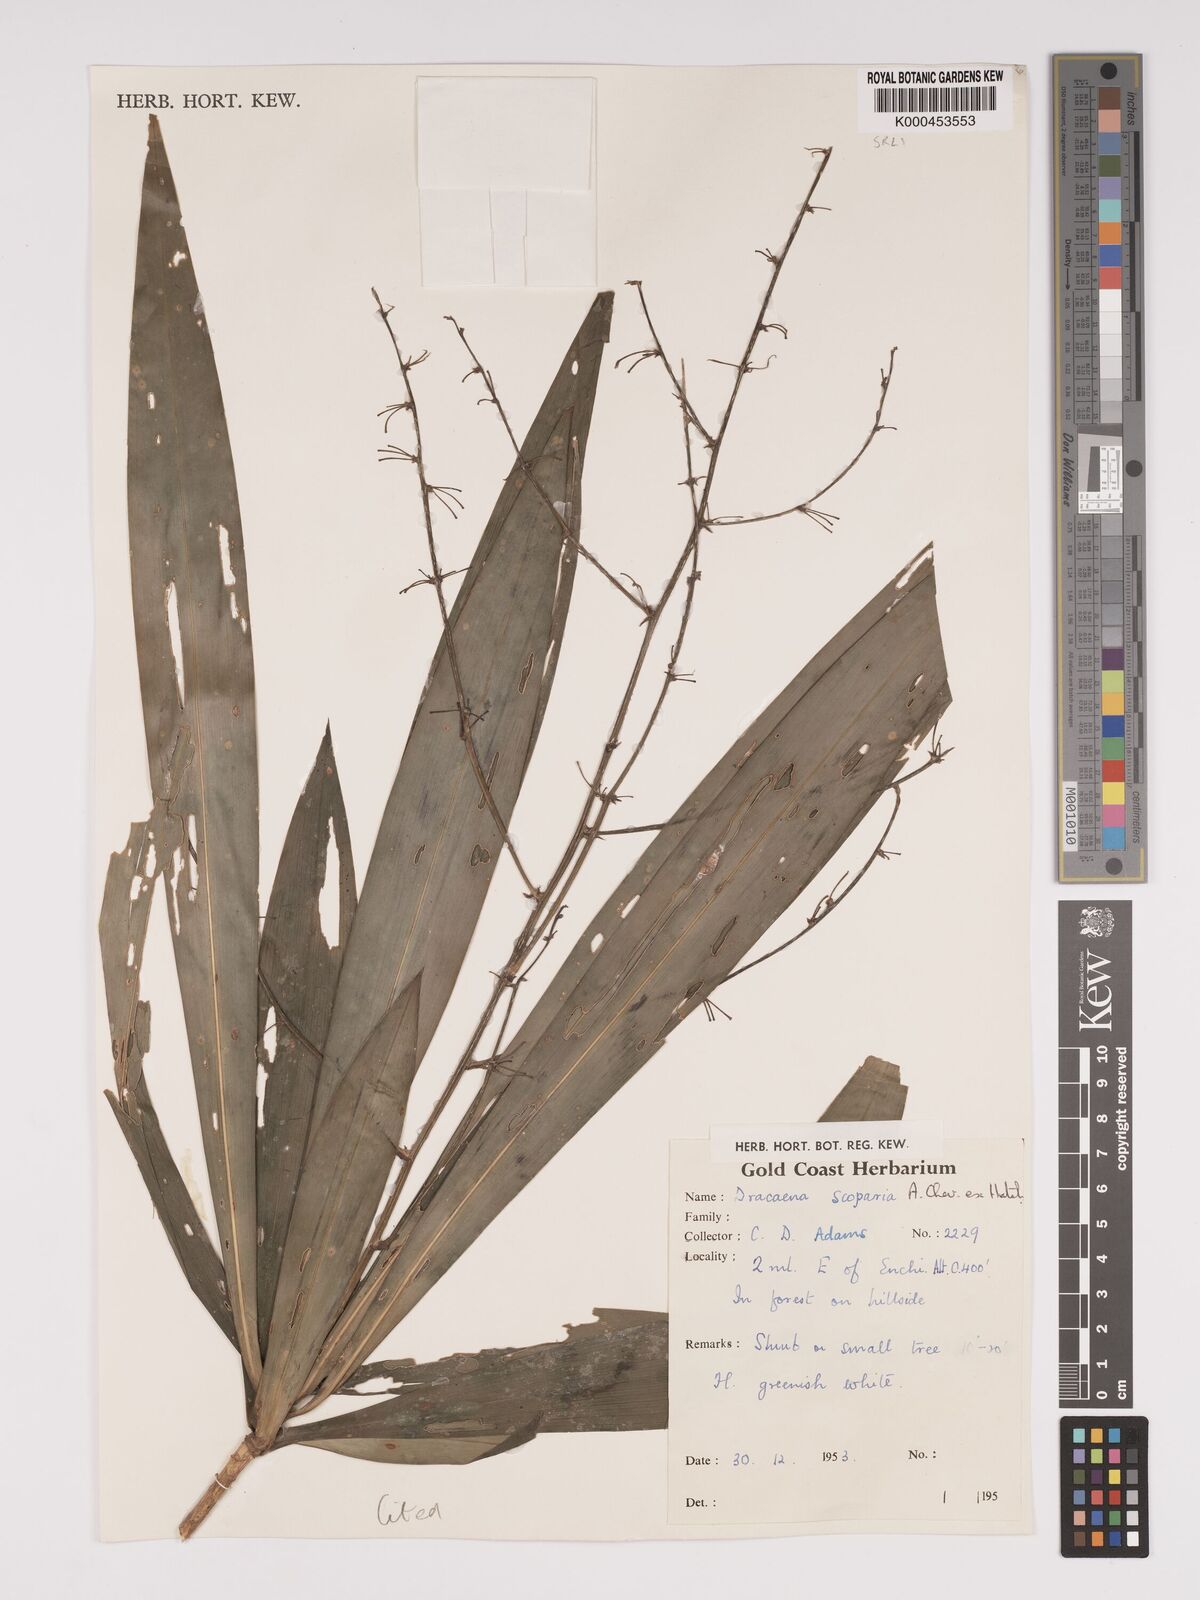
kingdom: Plantae
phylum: Tracheophyta
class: Liliopsida
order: Asparagales
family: Asparagaceae
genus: Dracaena
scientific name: Dracaena cerasifera
